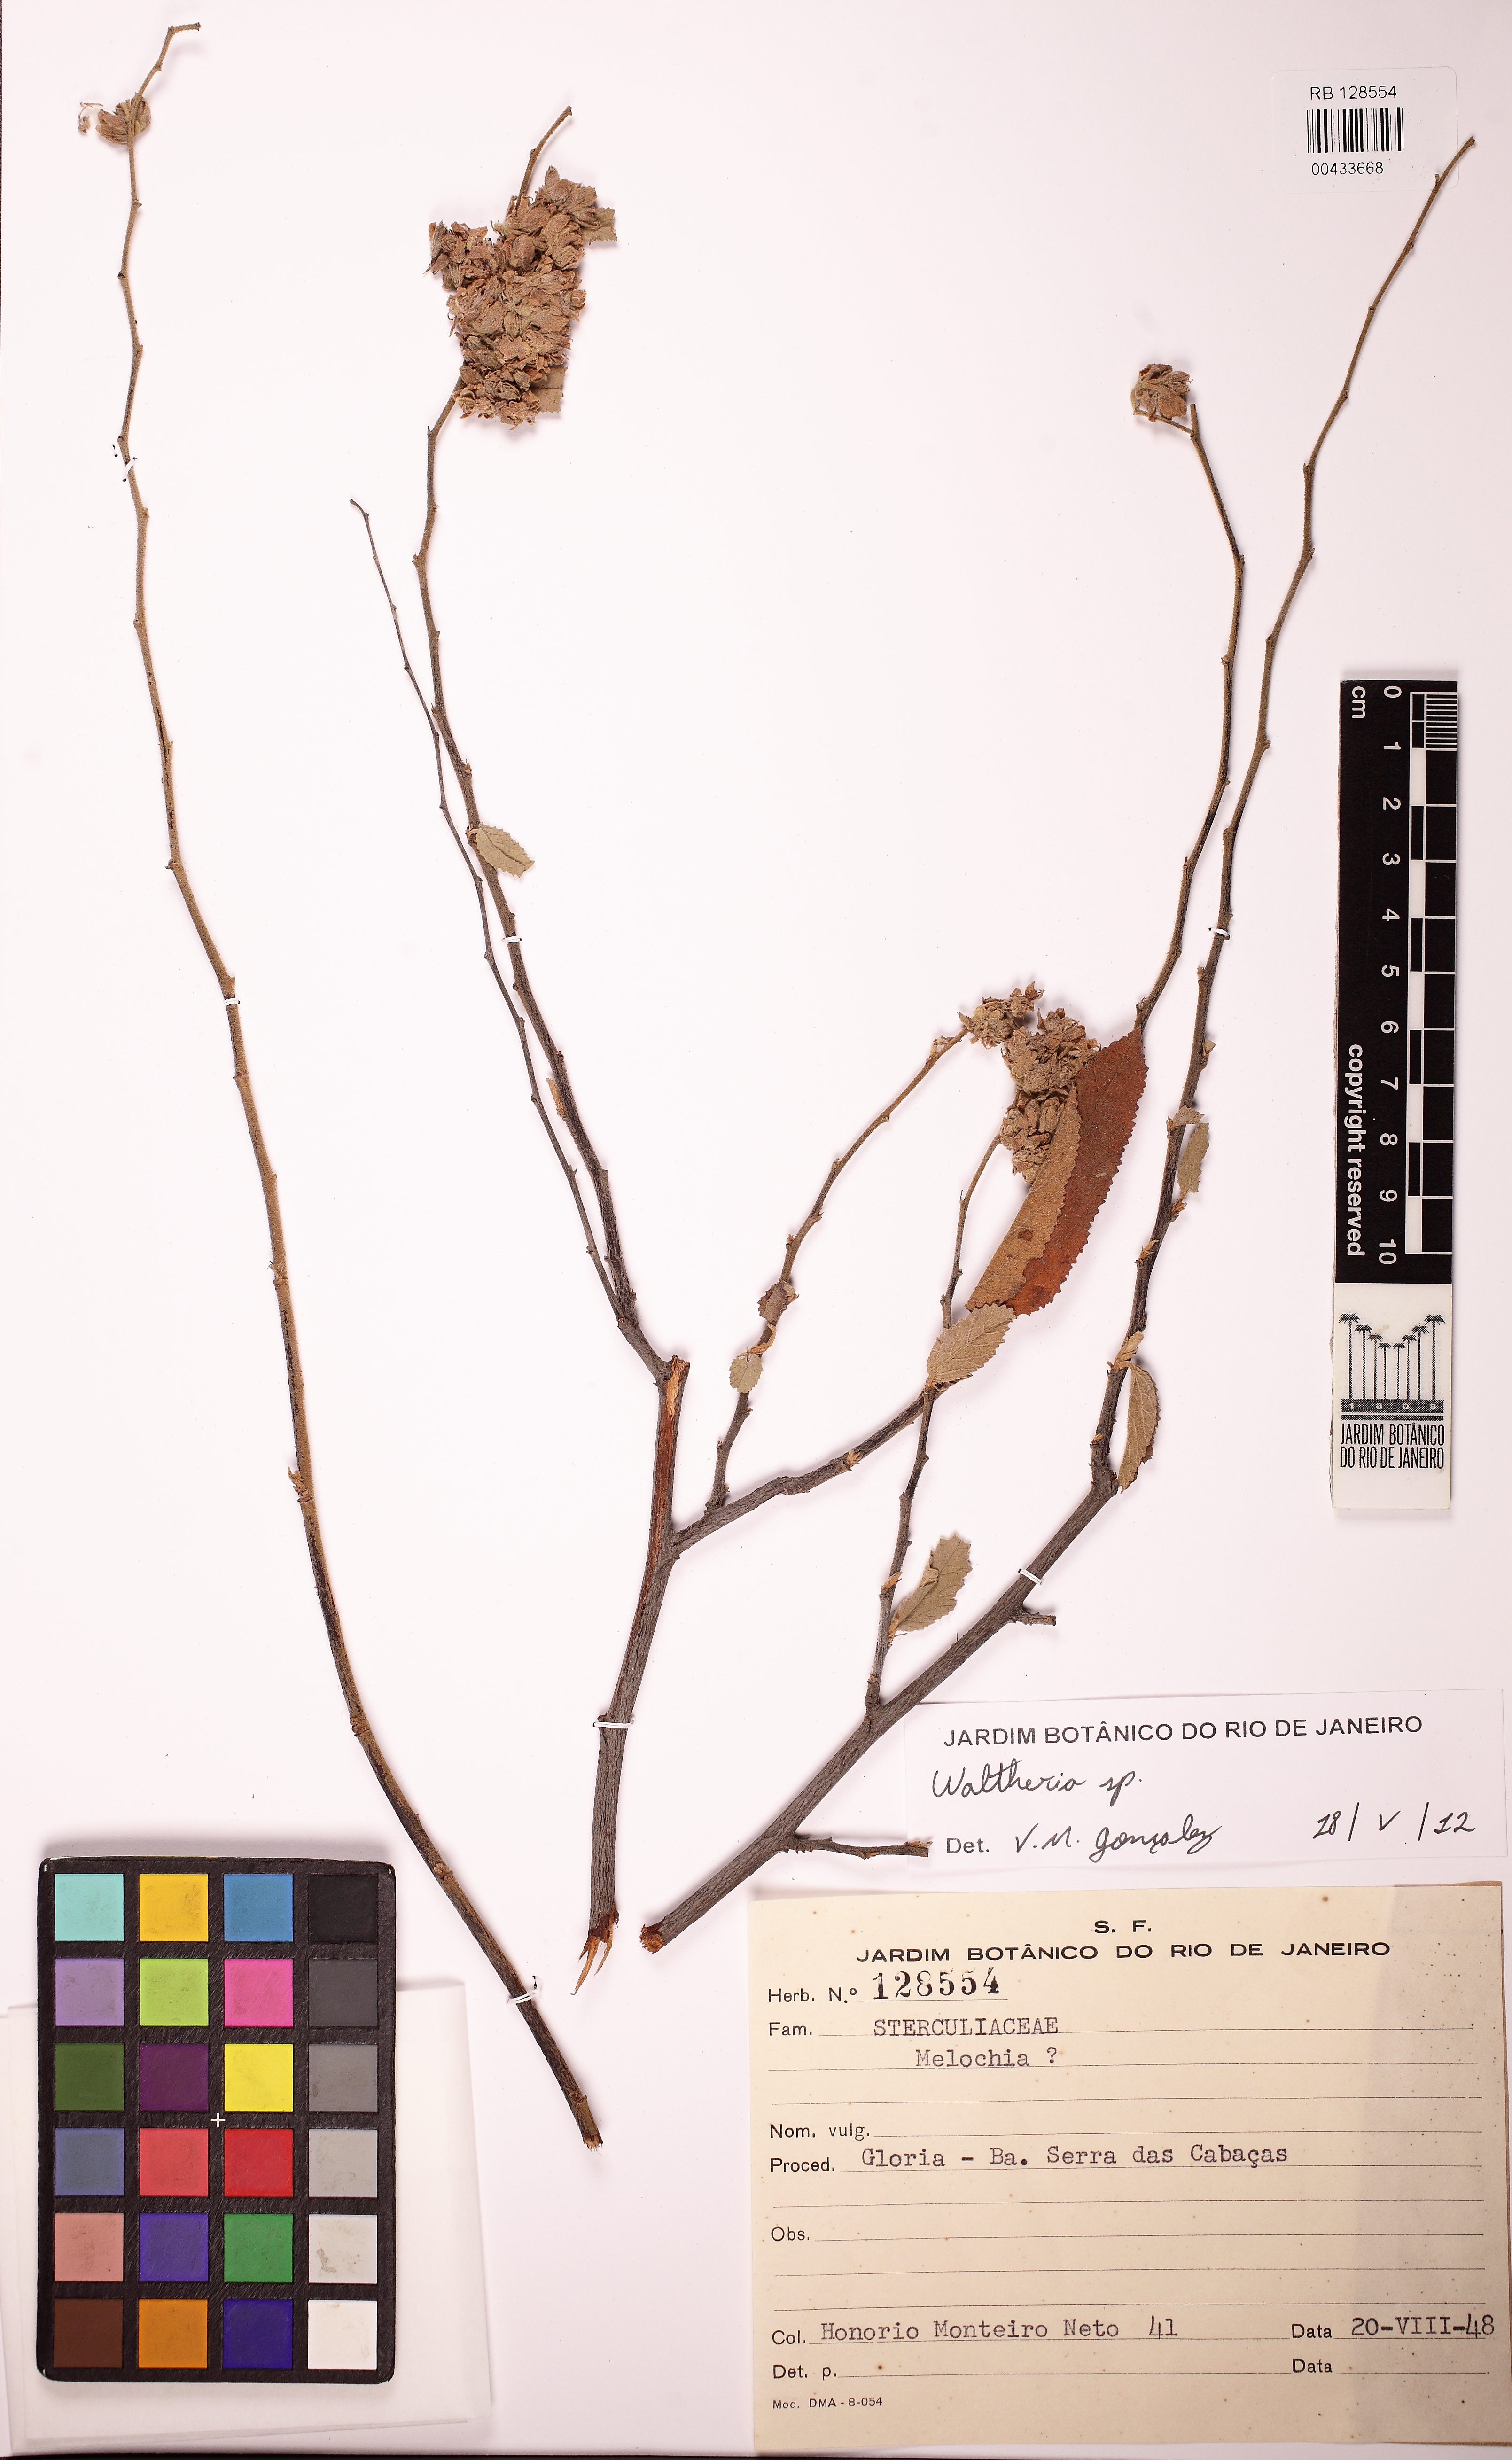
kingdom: Plantae
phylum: Tracheophyta
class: Magnoliopsida
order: Malvales
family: Malvaceae
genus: Waltheria
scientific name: Waltheria brachypetala
